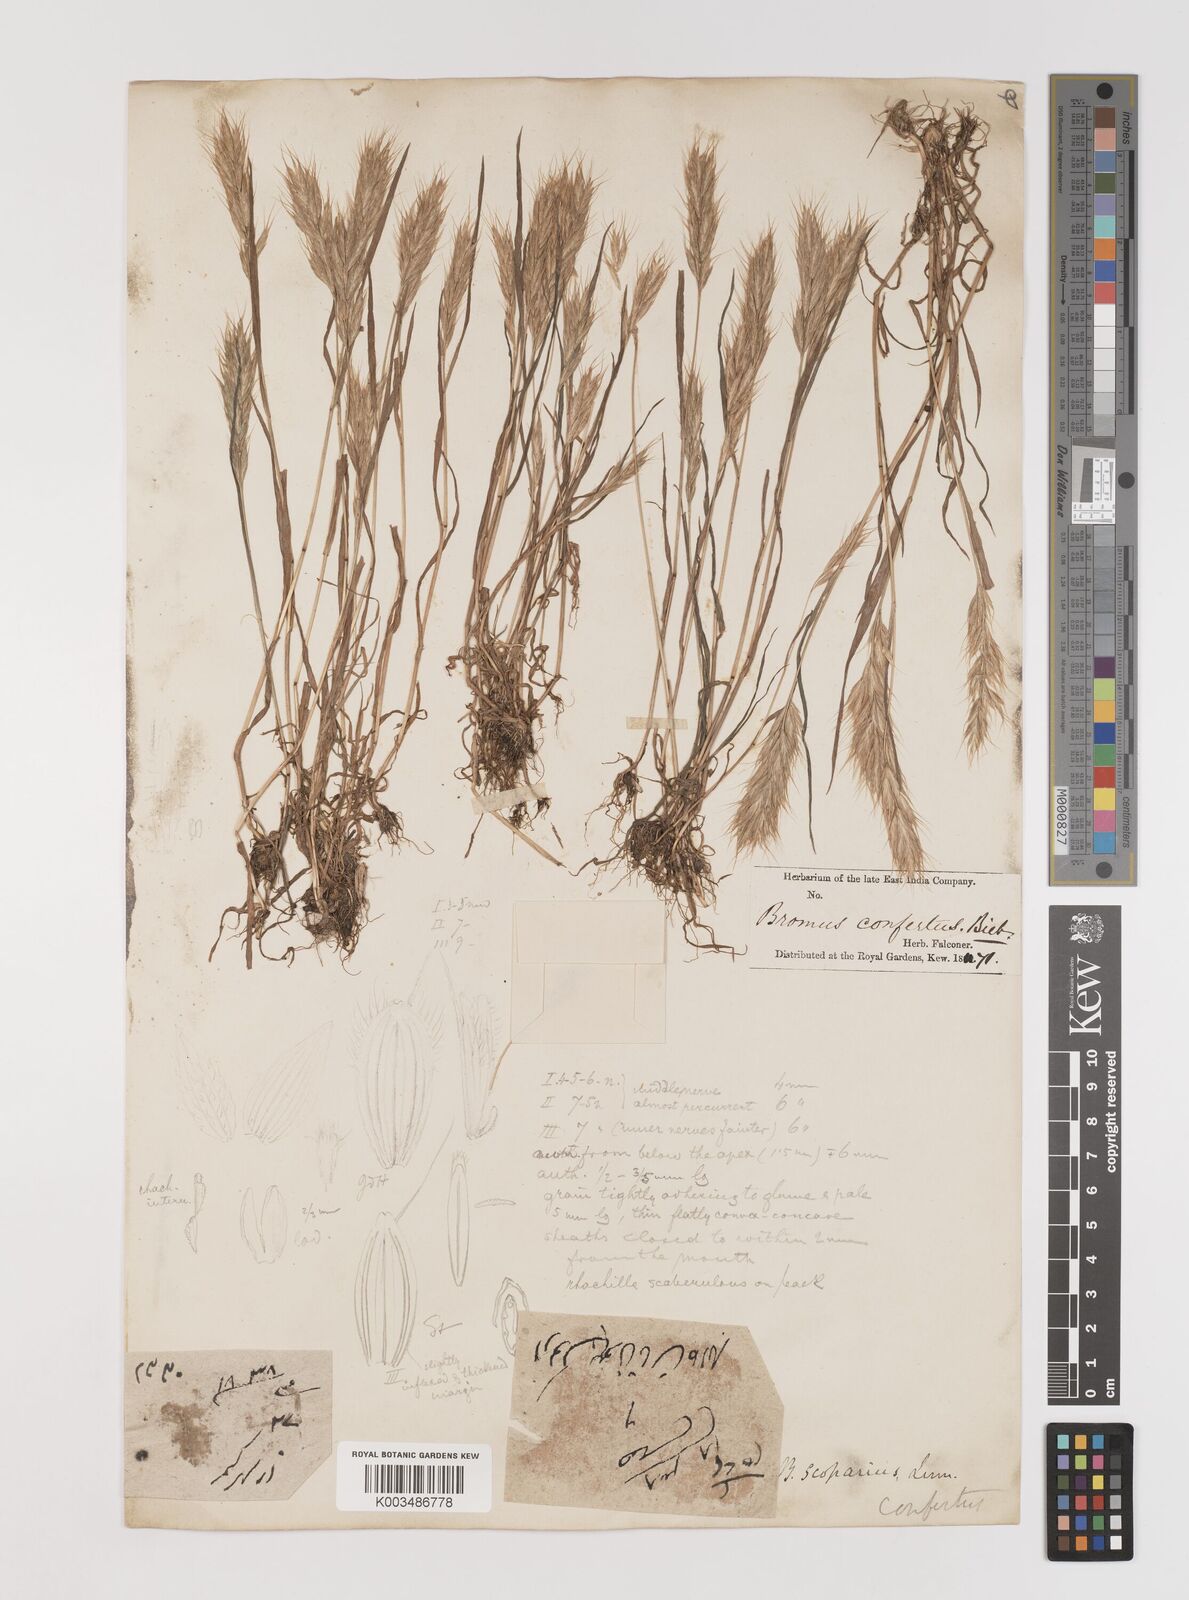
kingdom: Plantae
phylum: Tracheophyta
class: Liliopsida
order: Poales
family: Poaceae
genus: Bromus
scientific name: Bromus scoparius
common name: Broom brome
